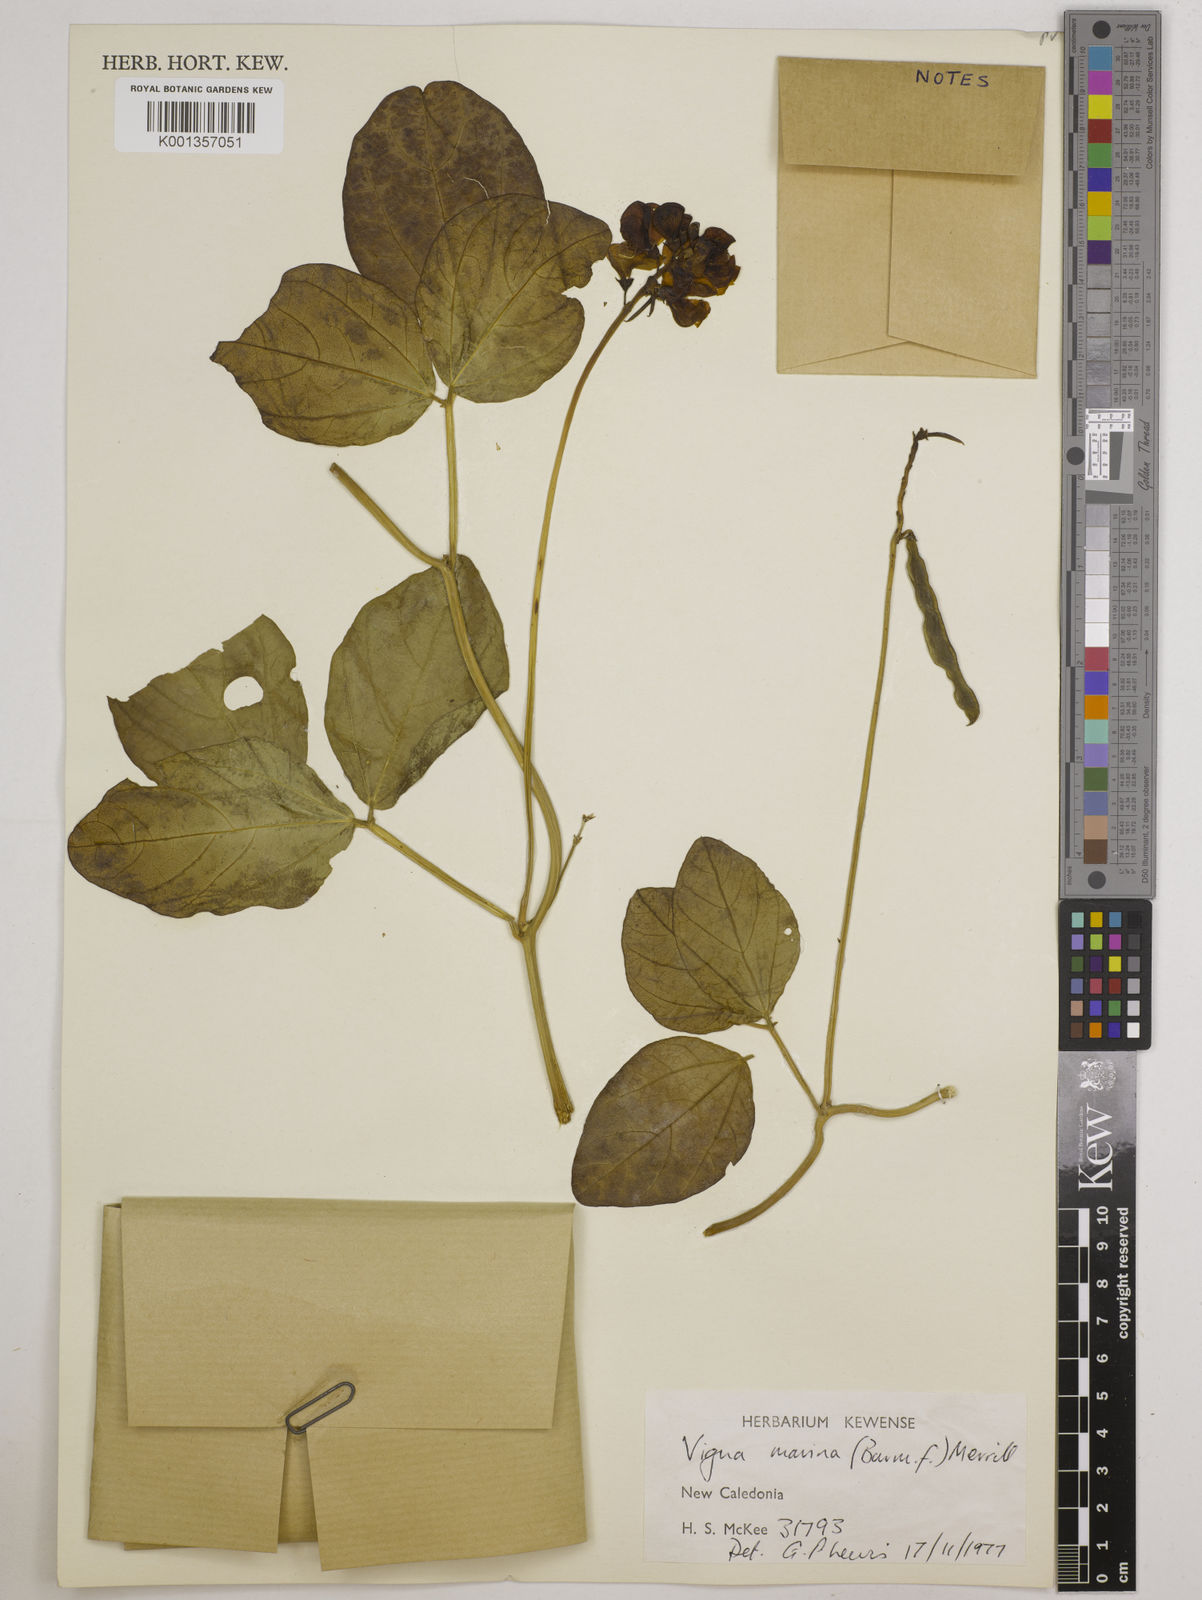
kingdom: Plantae
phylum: Tracheophyta
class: Magnoliopsida
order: Fabales
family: Fabaceae
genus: Vigna
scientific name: Vigna marina
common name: Dune-bean
